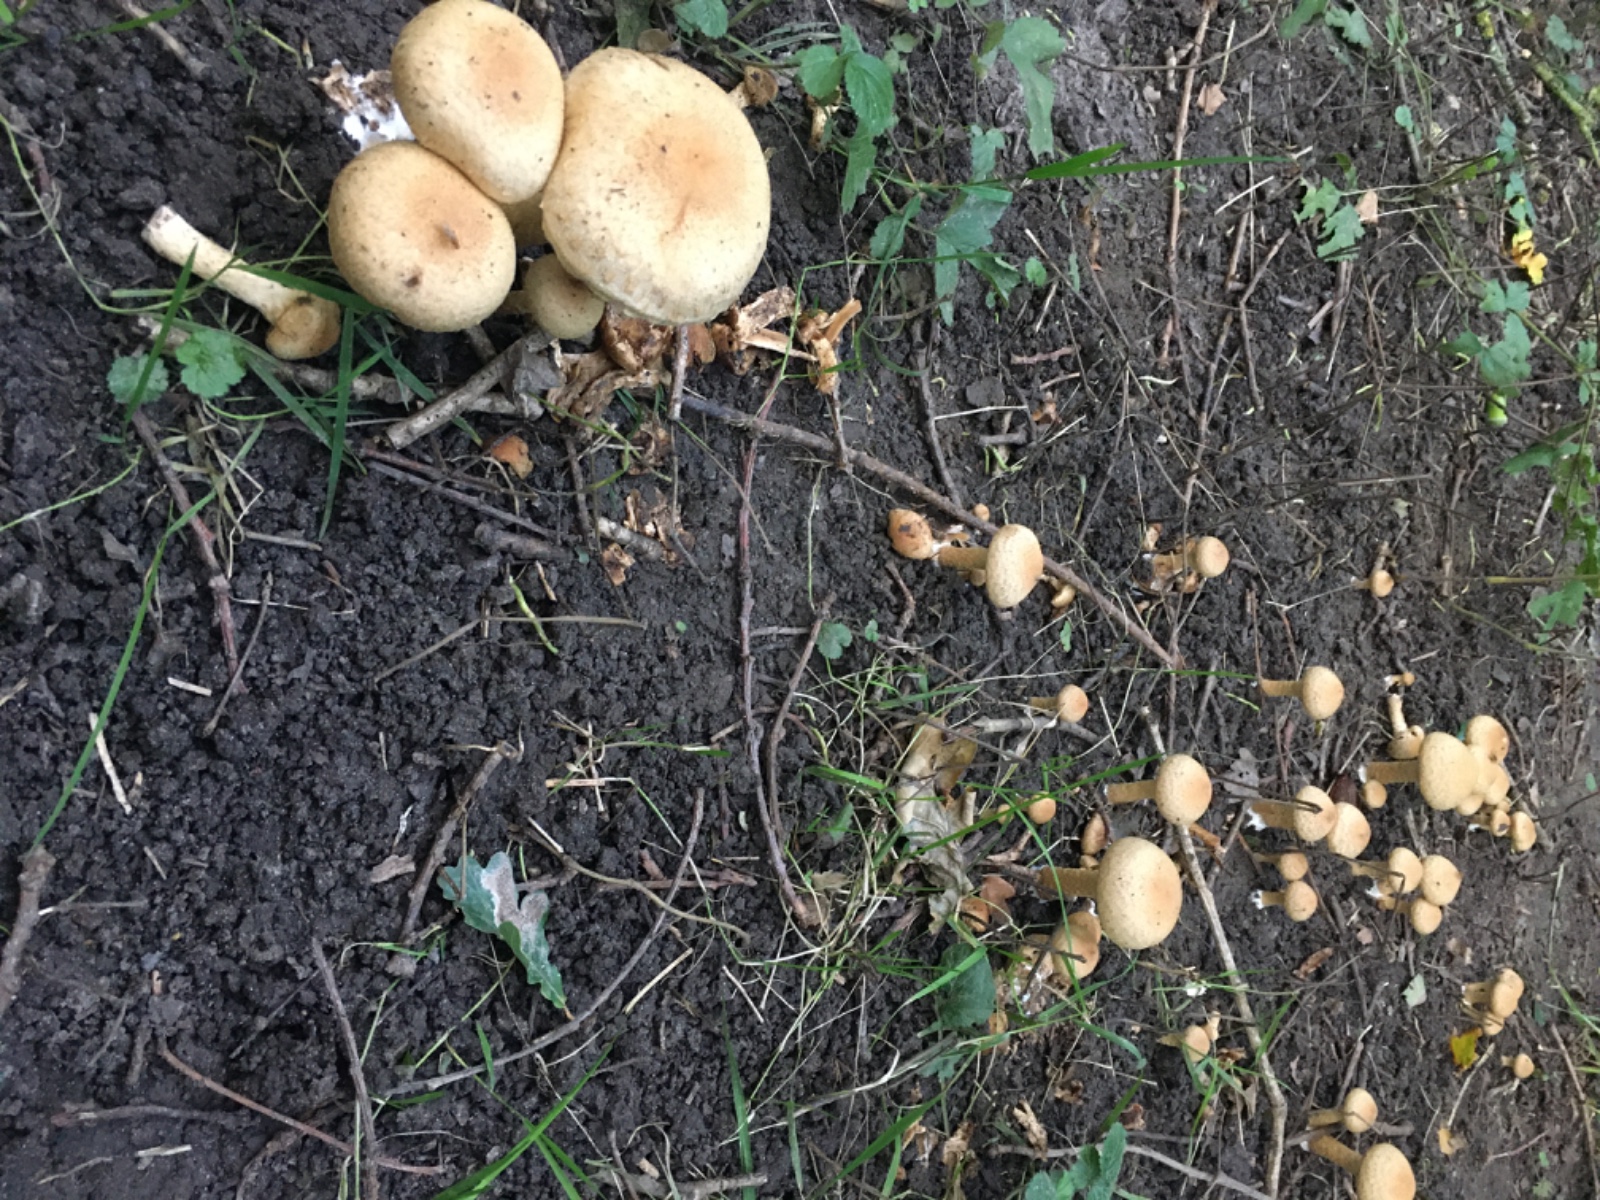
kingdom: Fungi
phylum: Basidiomycota
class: Agaricomycetes
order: Agaricales
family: Psathyrellaceae
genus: Lacrymaria
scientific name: Lacrymaria lacrymabunda
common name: grædende mørkhat
